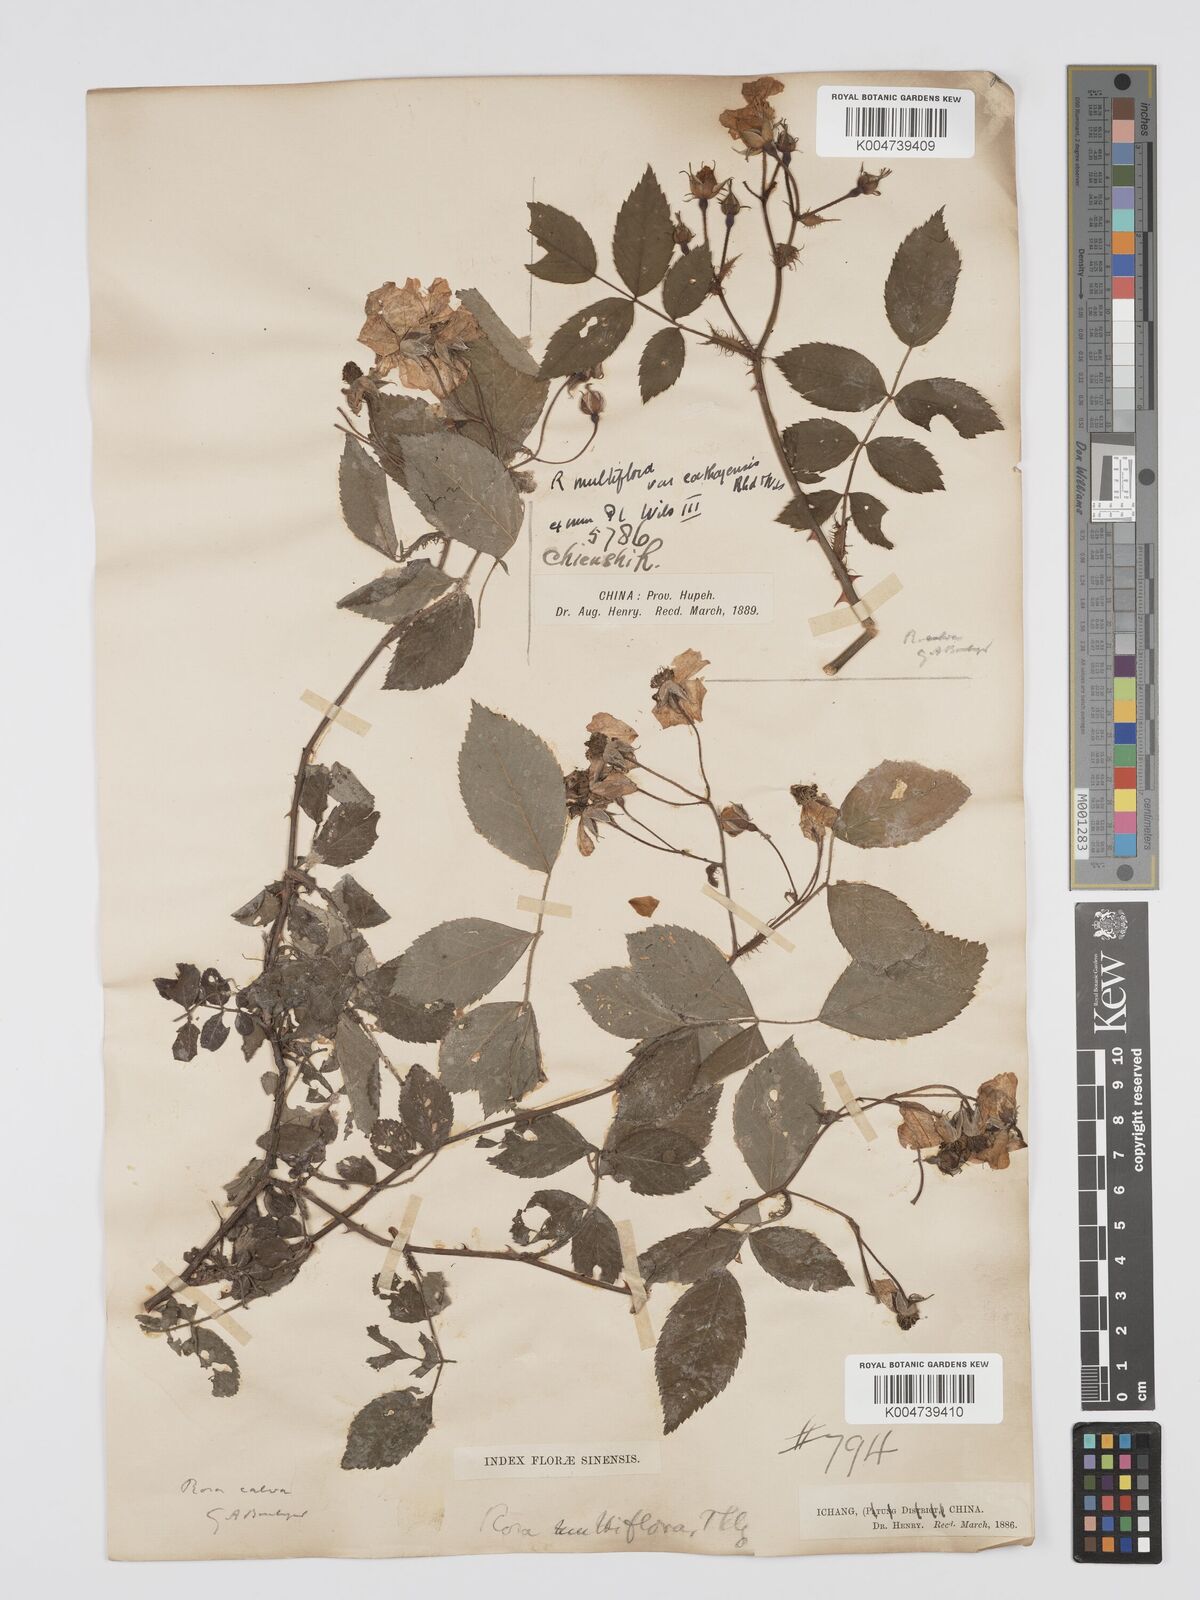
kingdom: Plantae
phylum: Tracheophyta
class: Magnoliopsida
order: Rosales
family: Rosaceae
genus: Rosa
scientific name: Rosa
